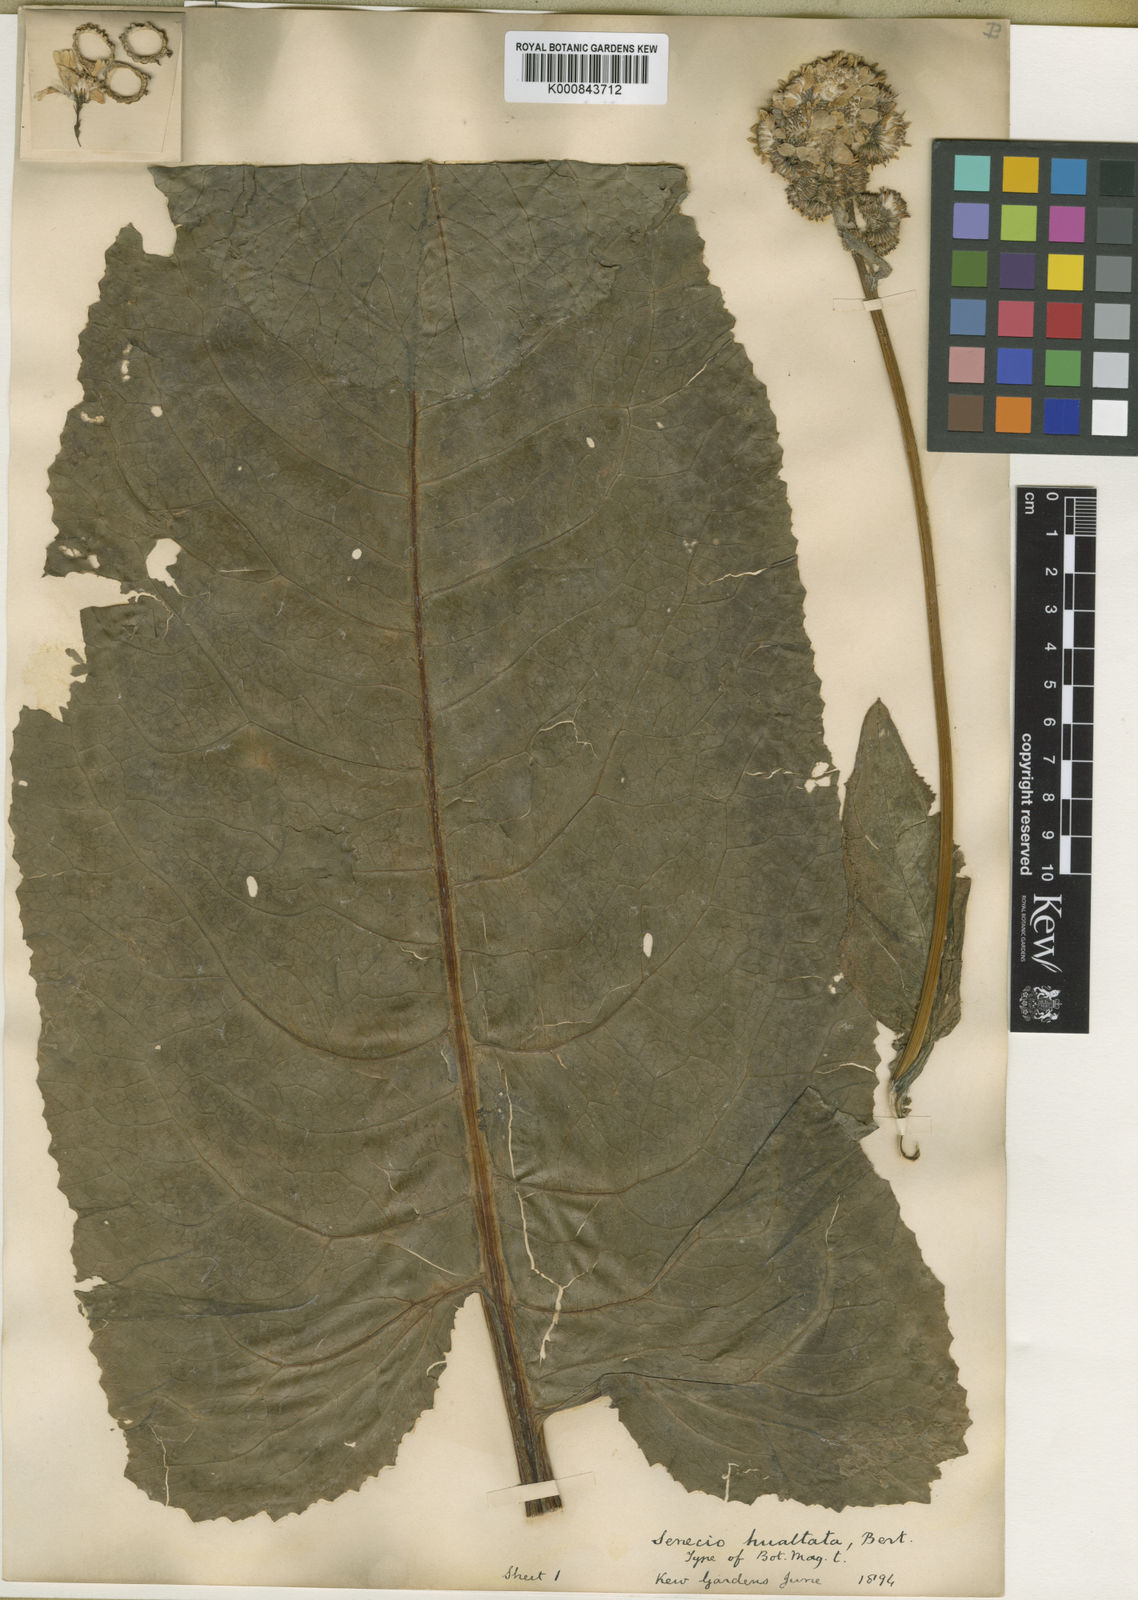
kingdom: Plantae
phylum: Tracheophyta
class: Magnoliopsida
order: Asterales
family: Asteraceae
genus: Senecio
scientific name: Senecio cremeiflorus
